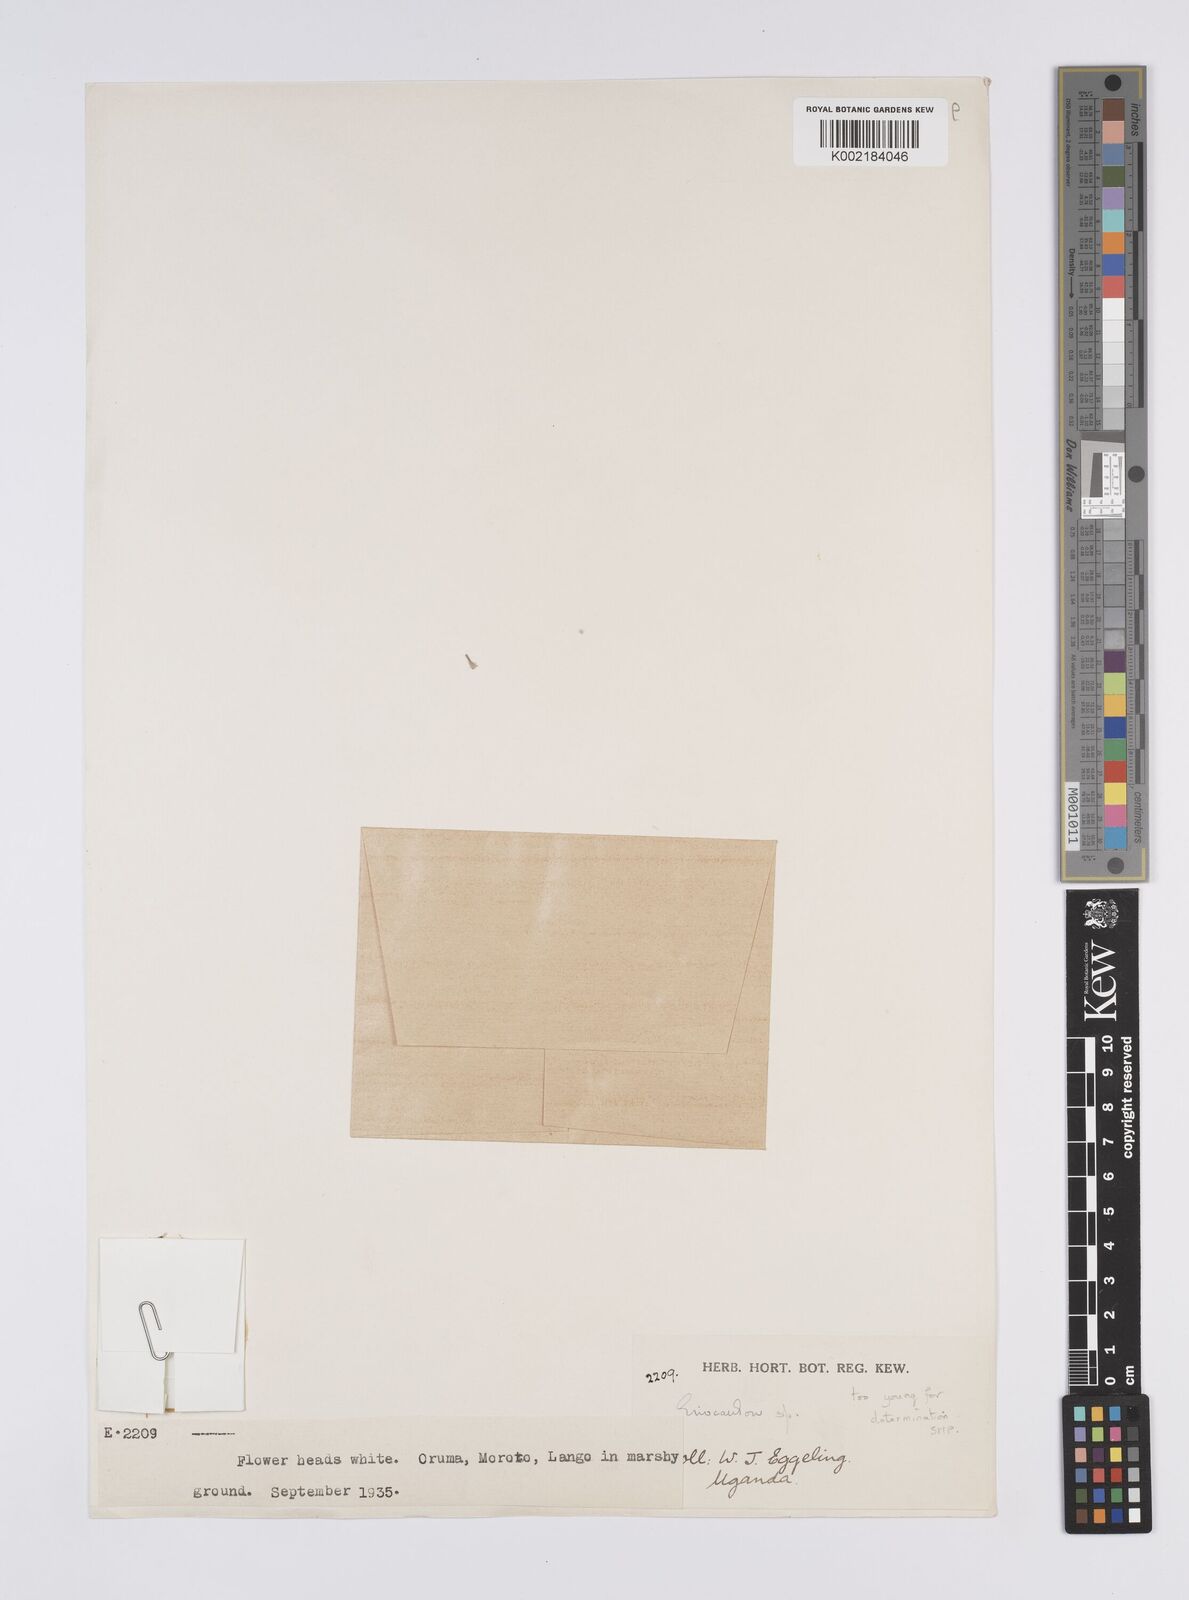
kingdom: Plantae
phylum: Tracheophyta
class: Liliopsida
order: Poales
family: Eriocaulaceae
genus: Eriocaulon
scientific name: Eriocaulon
